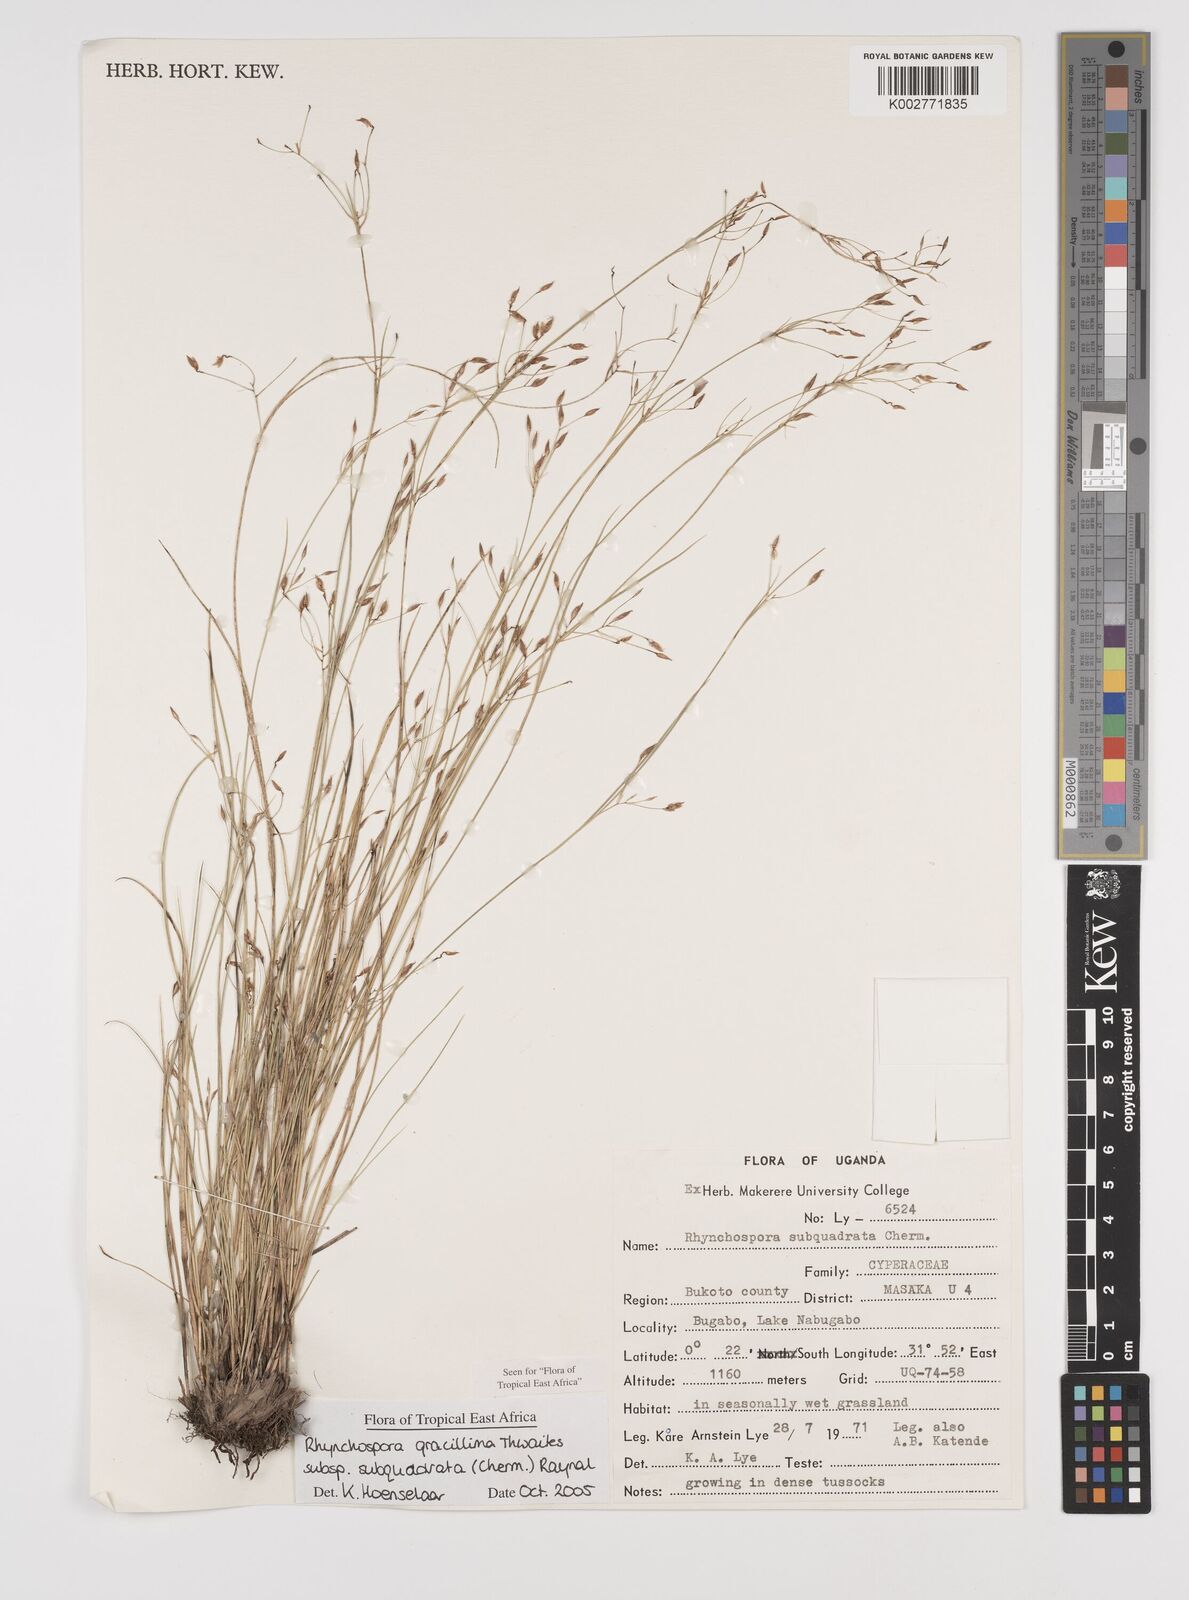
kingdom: Plantae
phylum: Tracheophyta
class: Liliopsida
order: Poales
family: Cyperaceae
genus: Rhynchospora
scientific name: Rhynchospora gracillima
